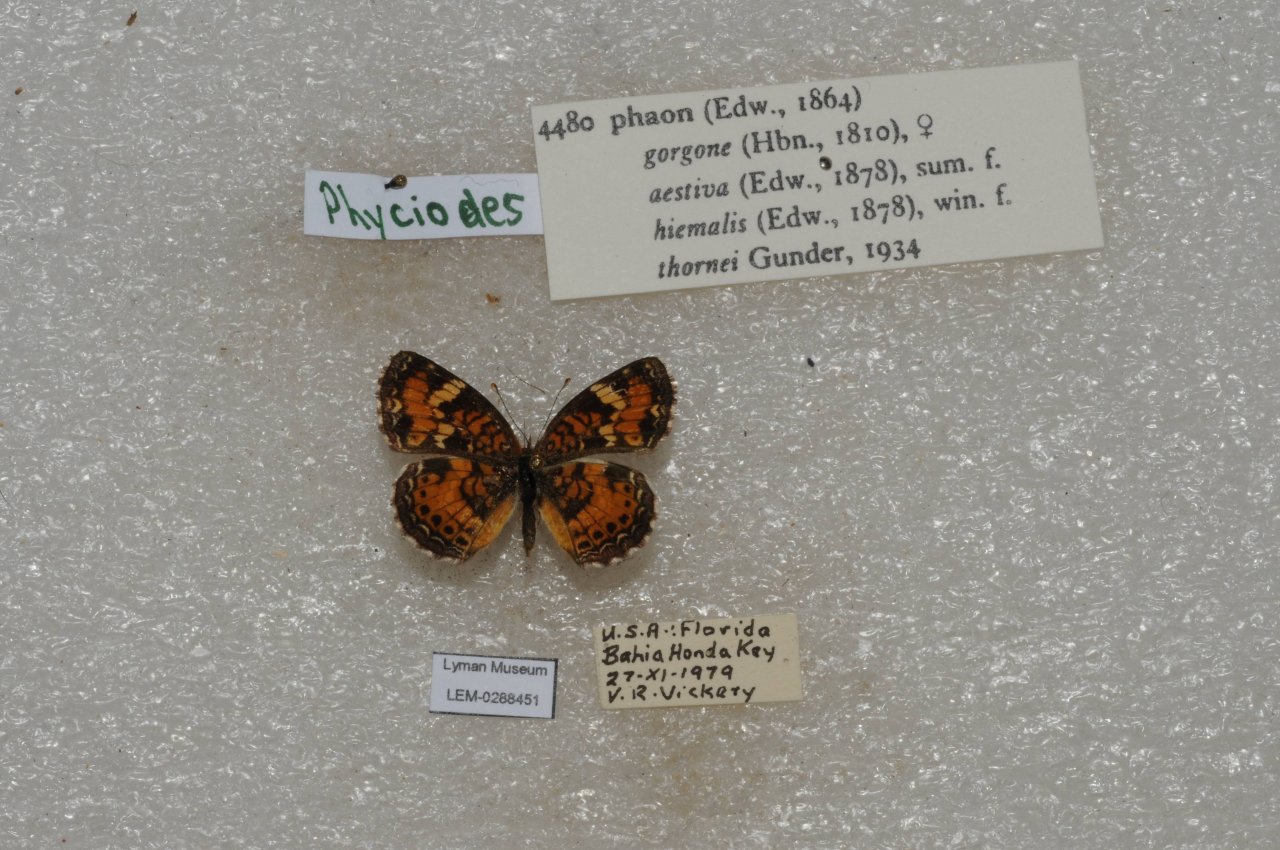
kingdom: Animalia
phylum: Arthropoda
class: Insecta
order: Lepidoptera
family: Nymphalidae
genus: Phyciodes
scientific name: Phyciodes phaon
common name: Phaon Crescent
